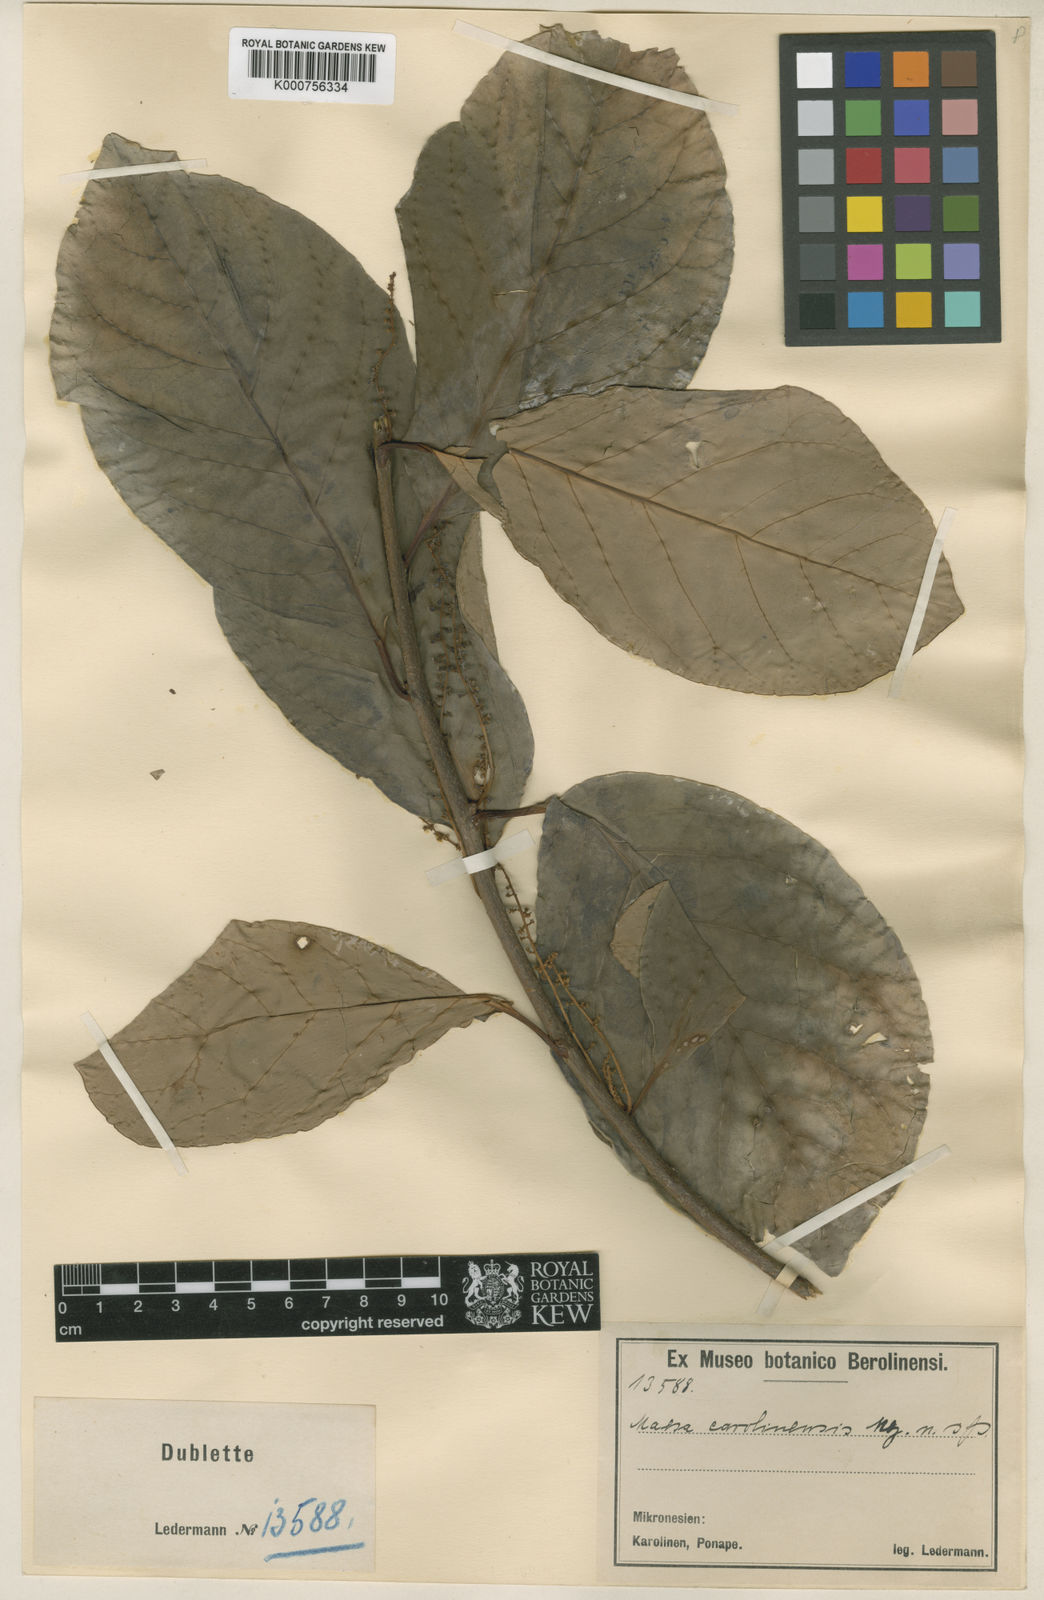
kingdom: Plantae
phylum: Tracheophyta
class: Magnoliopsida
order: Ericales
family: Primulaceae
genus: Maesa
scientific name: Maesa carolinensis
